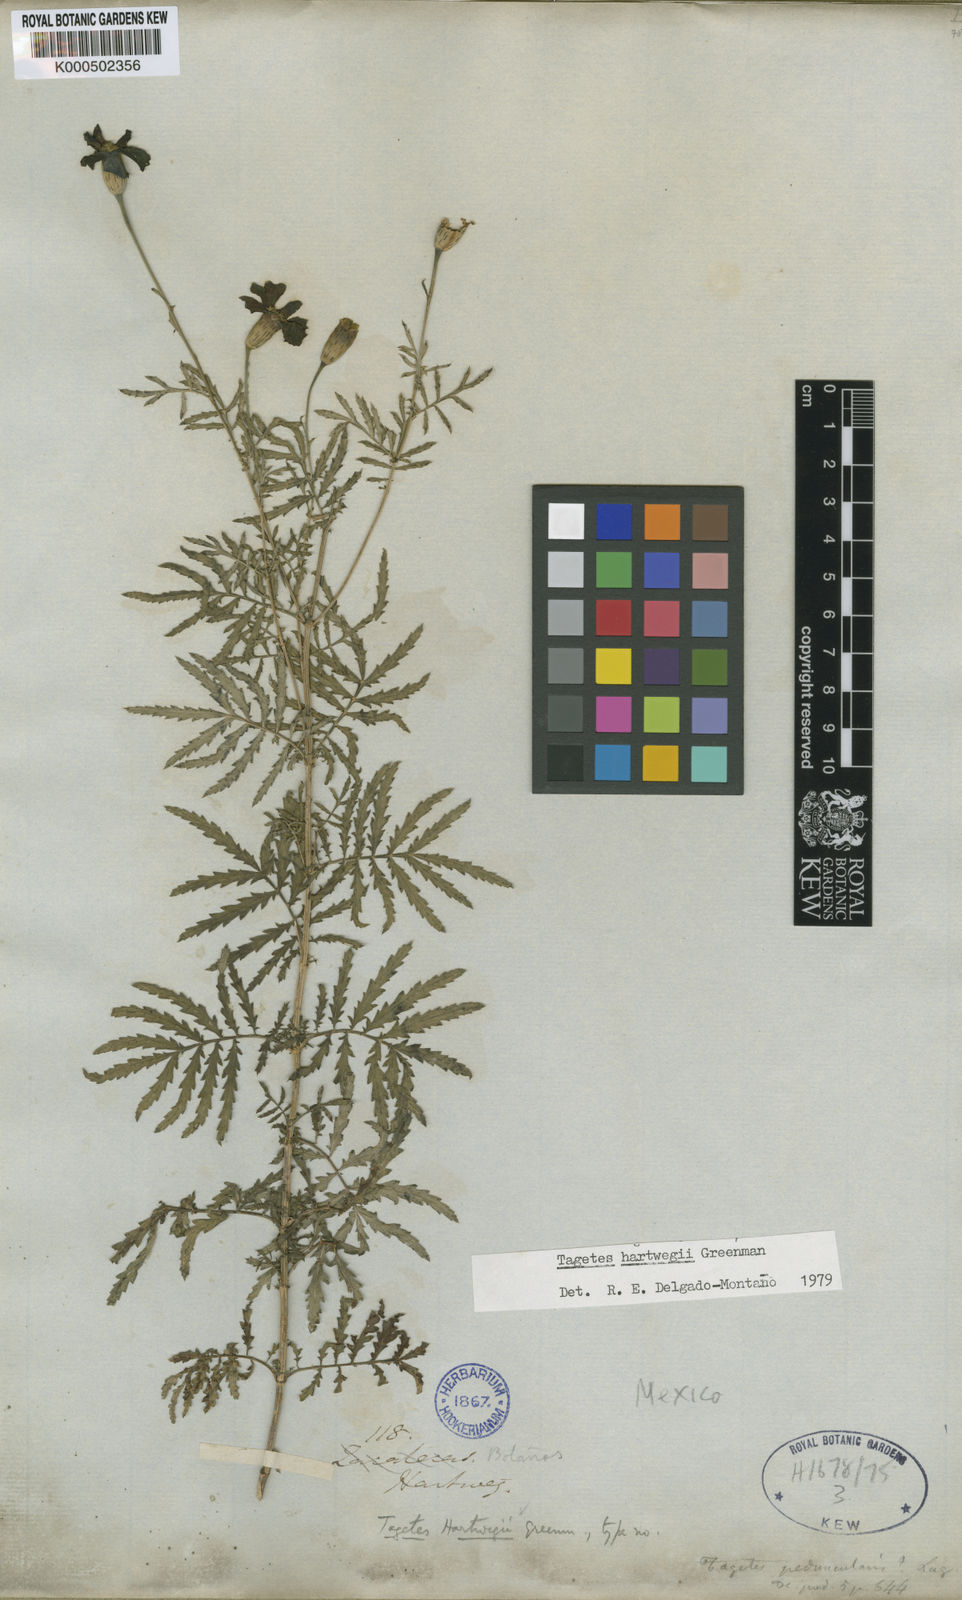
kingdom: Plantae
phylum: Tracheophyta
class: Magnoliopsida
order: Asterales
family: Asteraceae
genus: Tagetes
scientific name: Tagetes hartwegii
